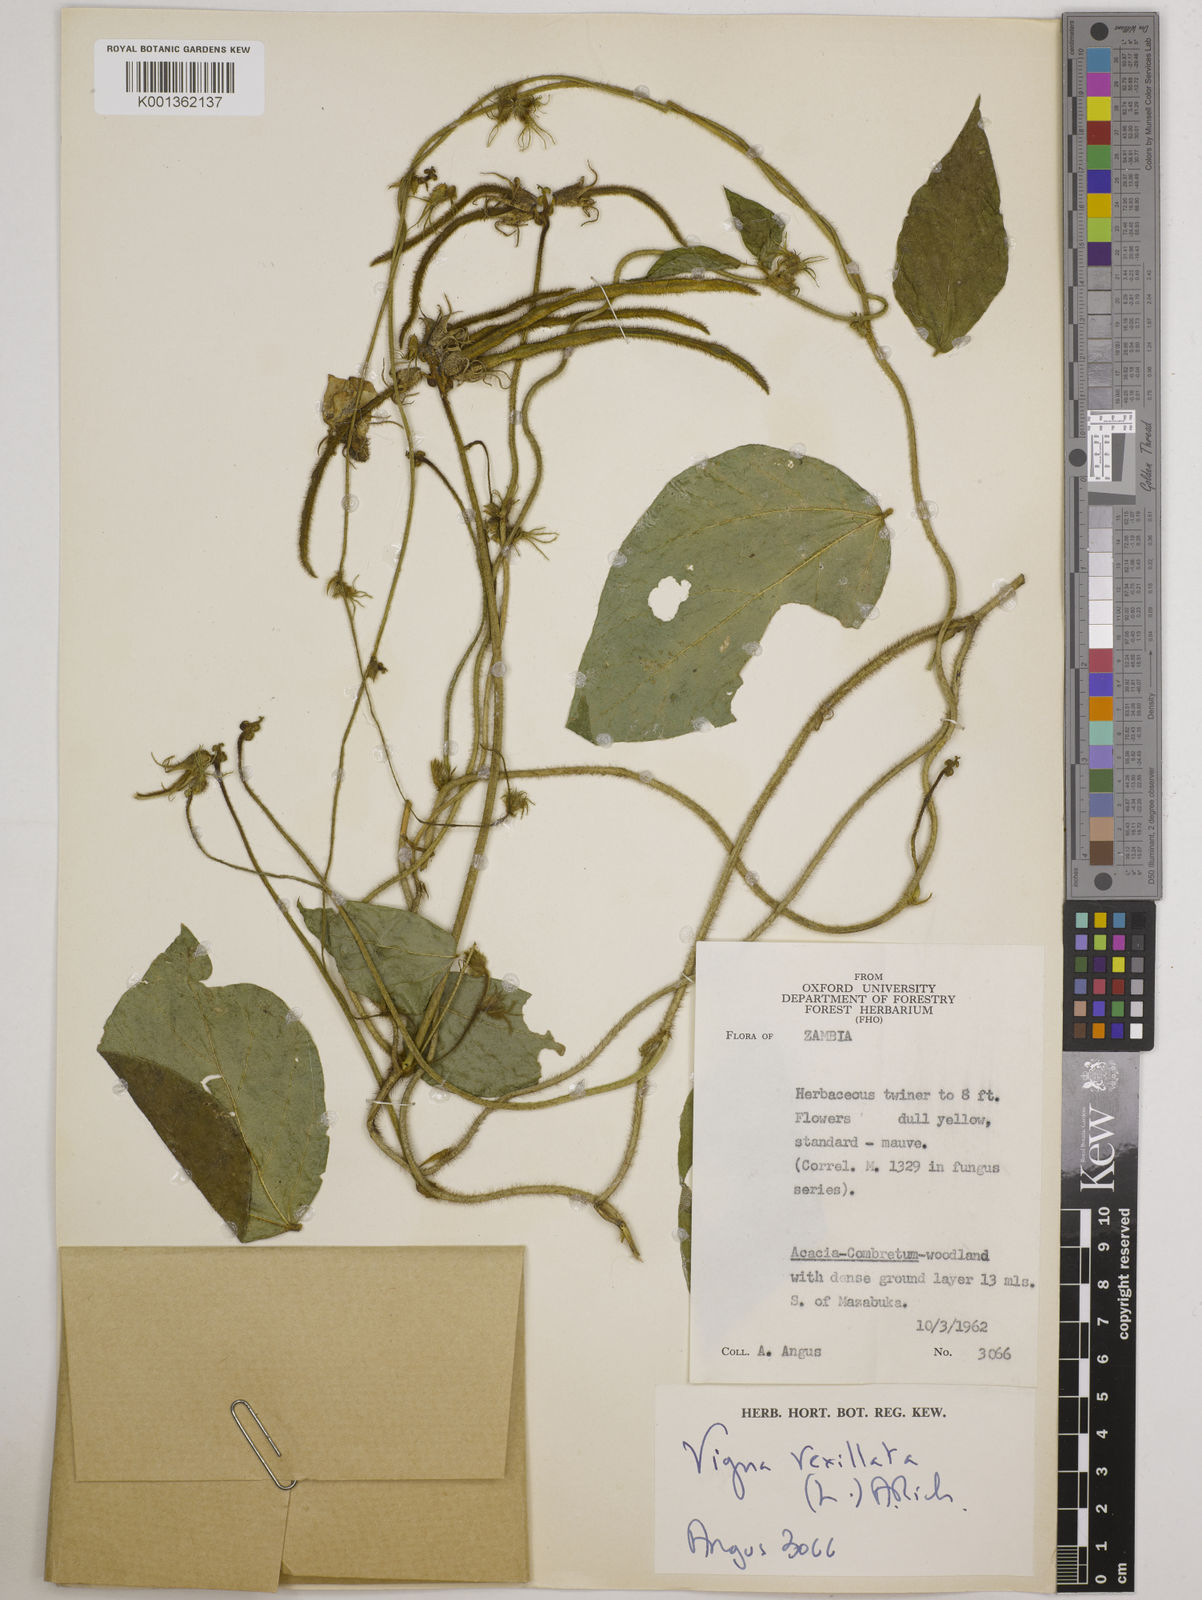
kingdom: Plantae
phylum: Tracheophyta
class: Magnoliopsida
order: Fabales
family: Fabaceae
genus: Vigna
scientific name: Vigna vexillata
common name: Zombi pea
